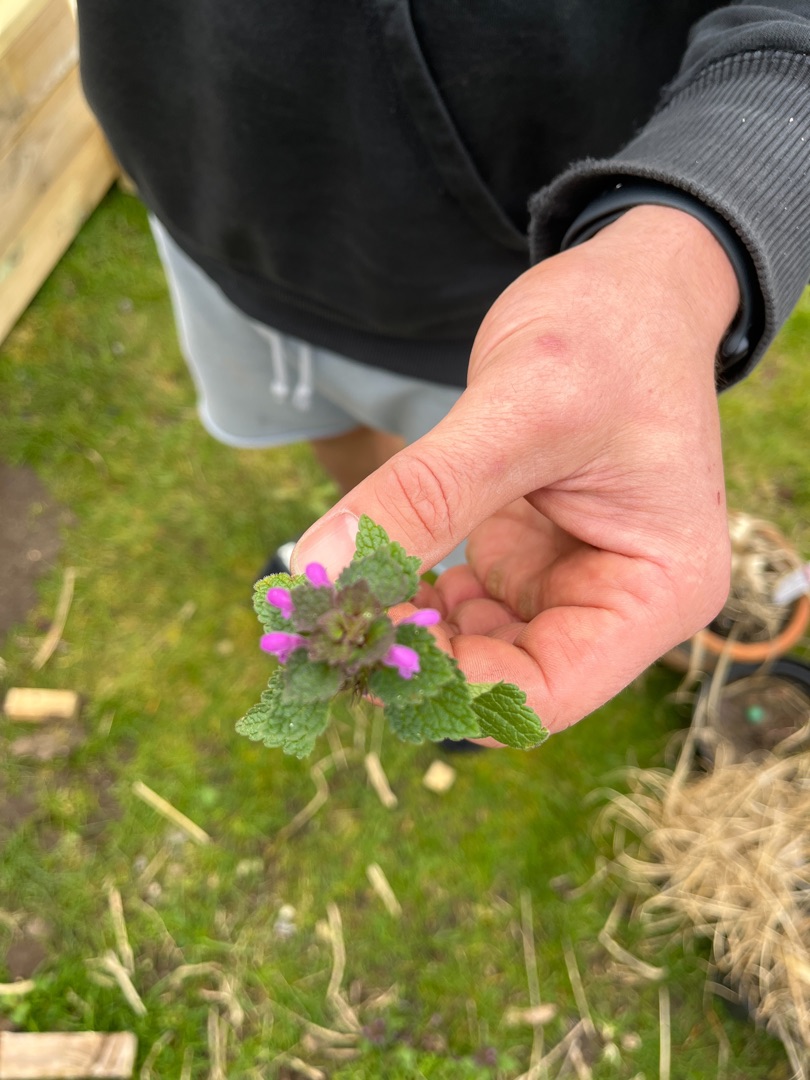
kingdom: Plantae
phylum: Tracheophyta
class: Magnoliopsida
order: Lamiales
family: Lamiaceae
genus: Lamium
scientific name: Lamium purpureum
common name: Rød tvetand
